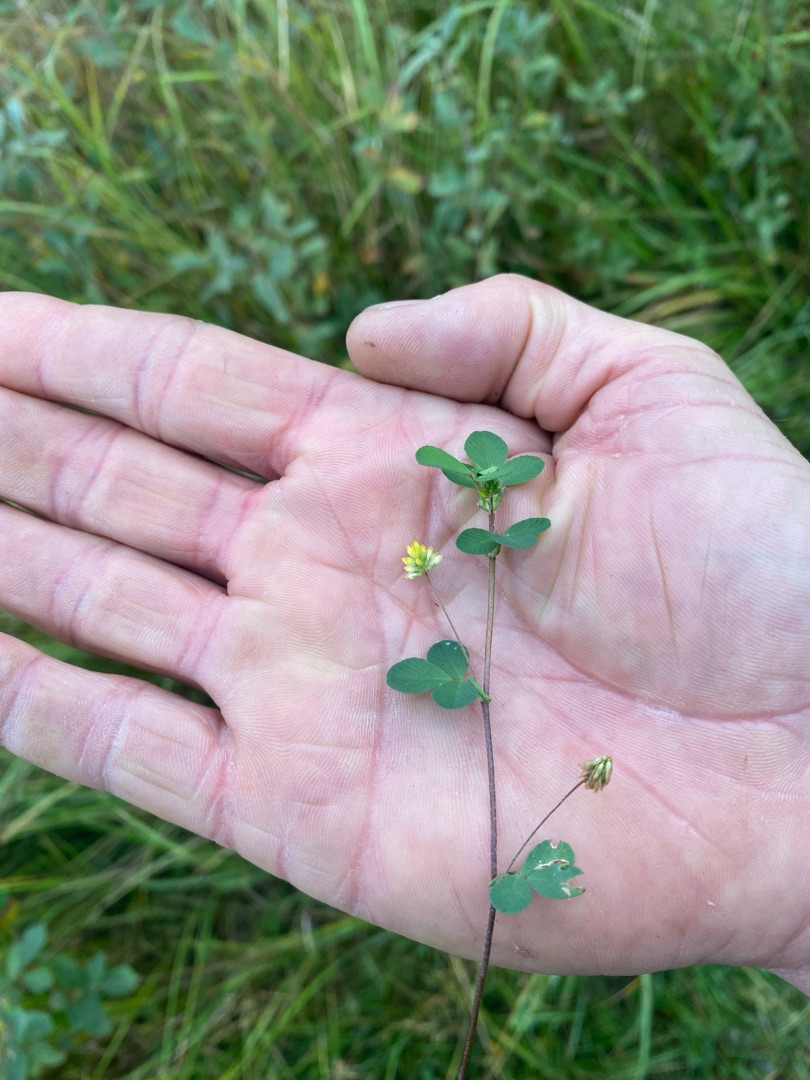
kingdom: Plantae
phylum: Tracheophyta
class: Magnoliopsida
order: Fabales
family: Fabaceae
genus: Trifolium
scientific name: Trifolium dubium
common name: Fin kløver
